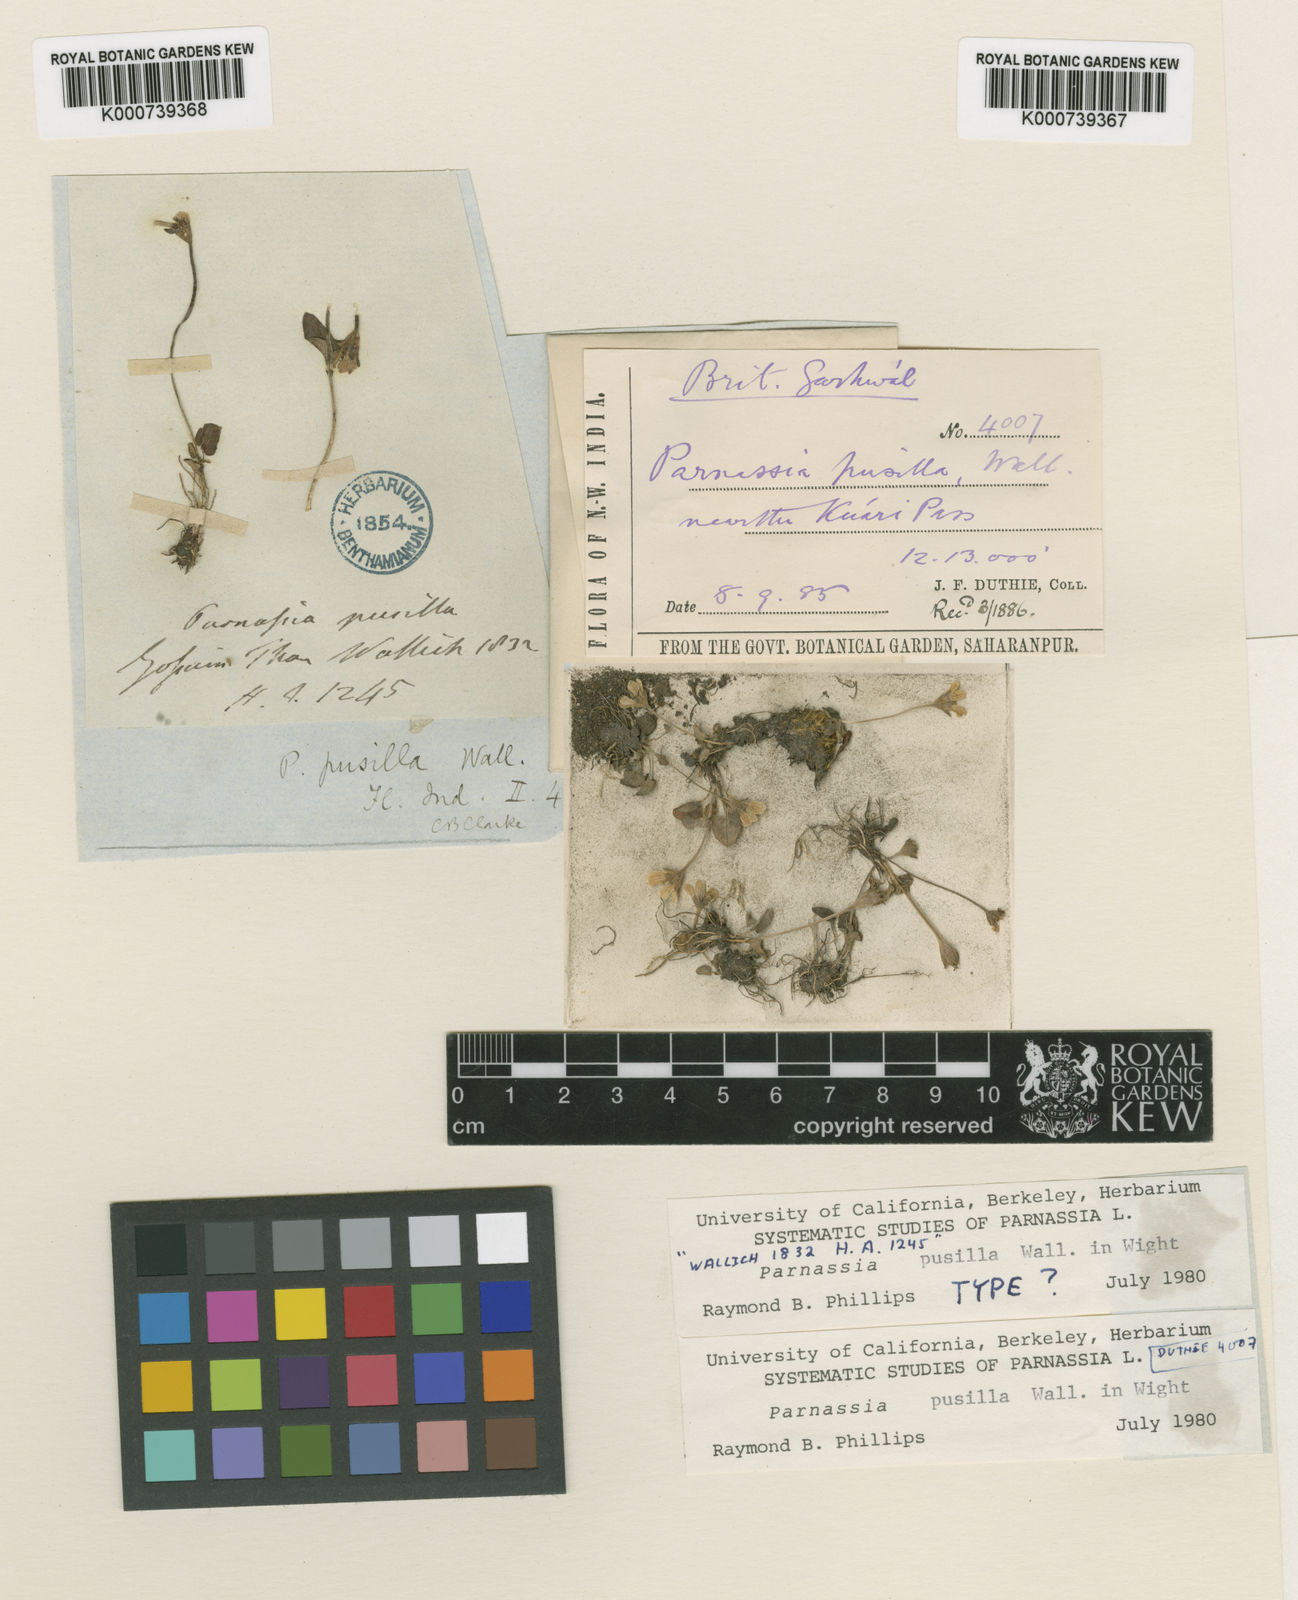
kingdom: Plantae
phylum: Tracheophyta
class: Magnoliopsida
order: Celastrales
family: Parnassiaceae
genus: Parnassia
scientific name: Parnassia pusilla
